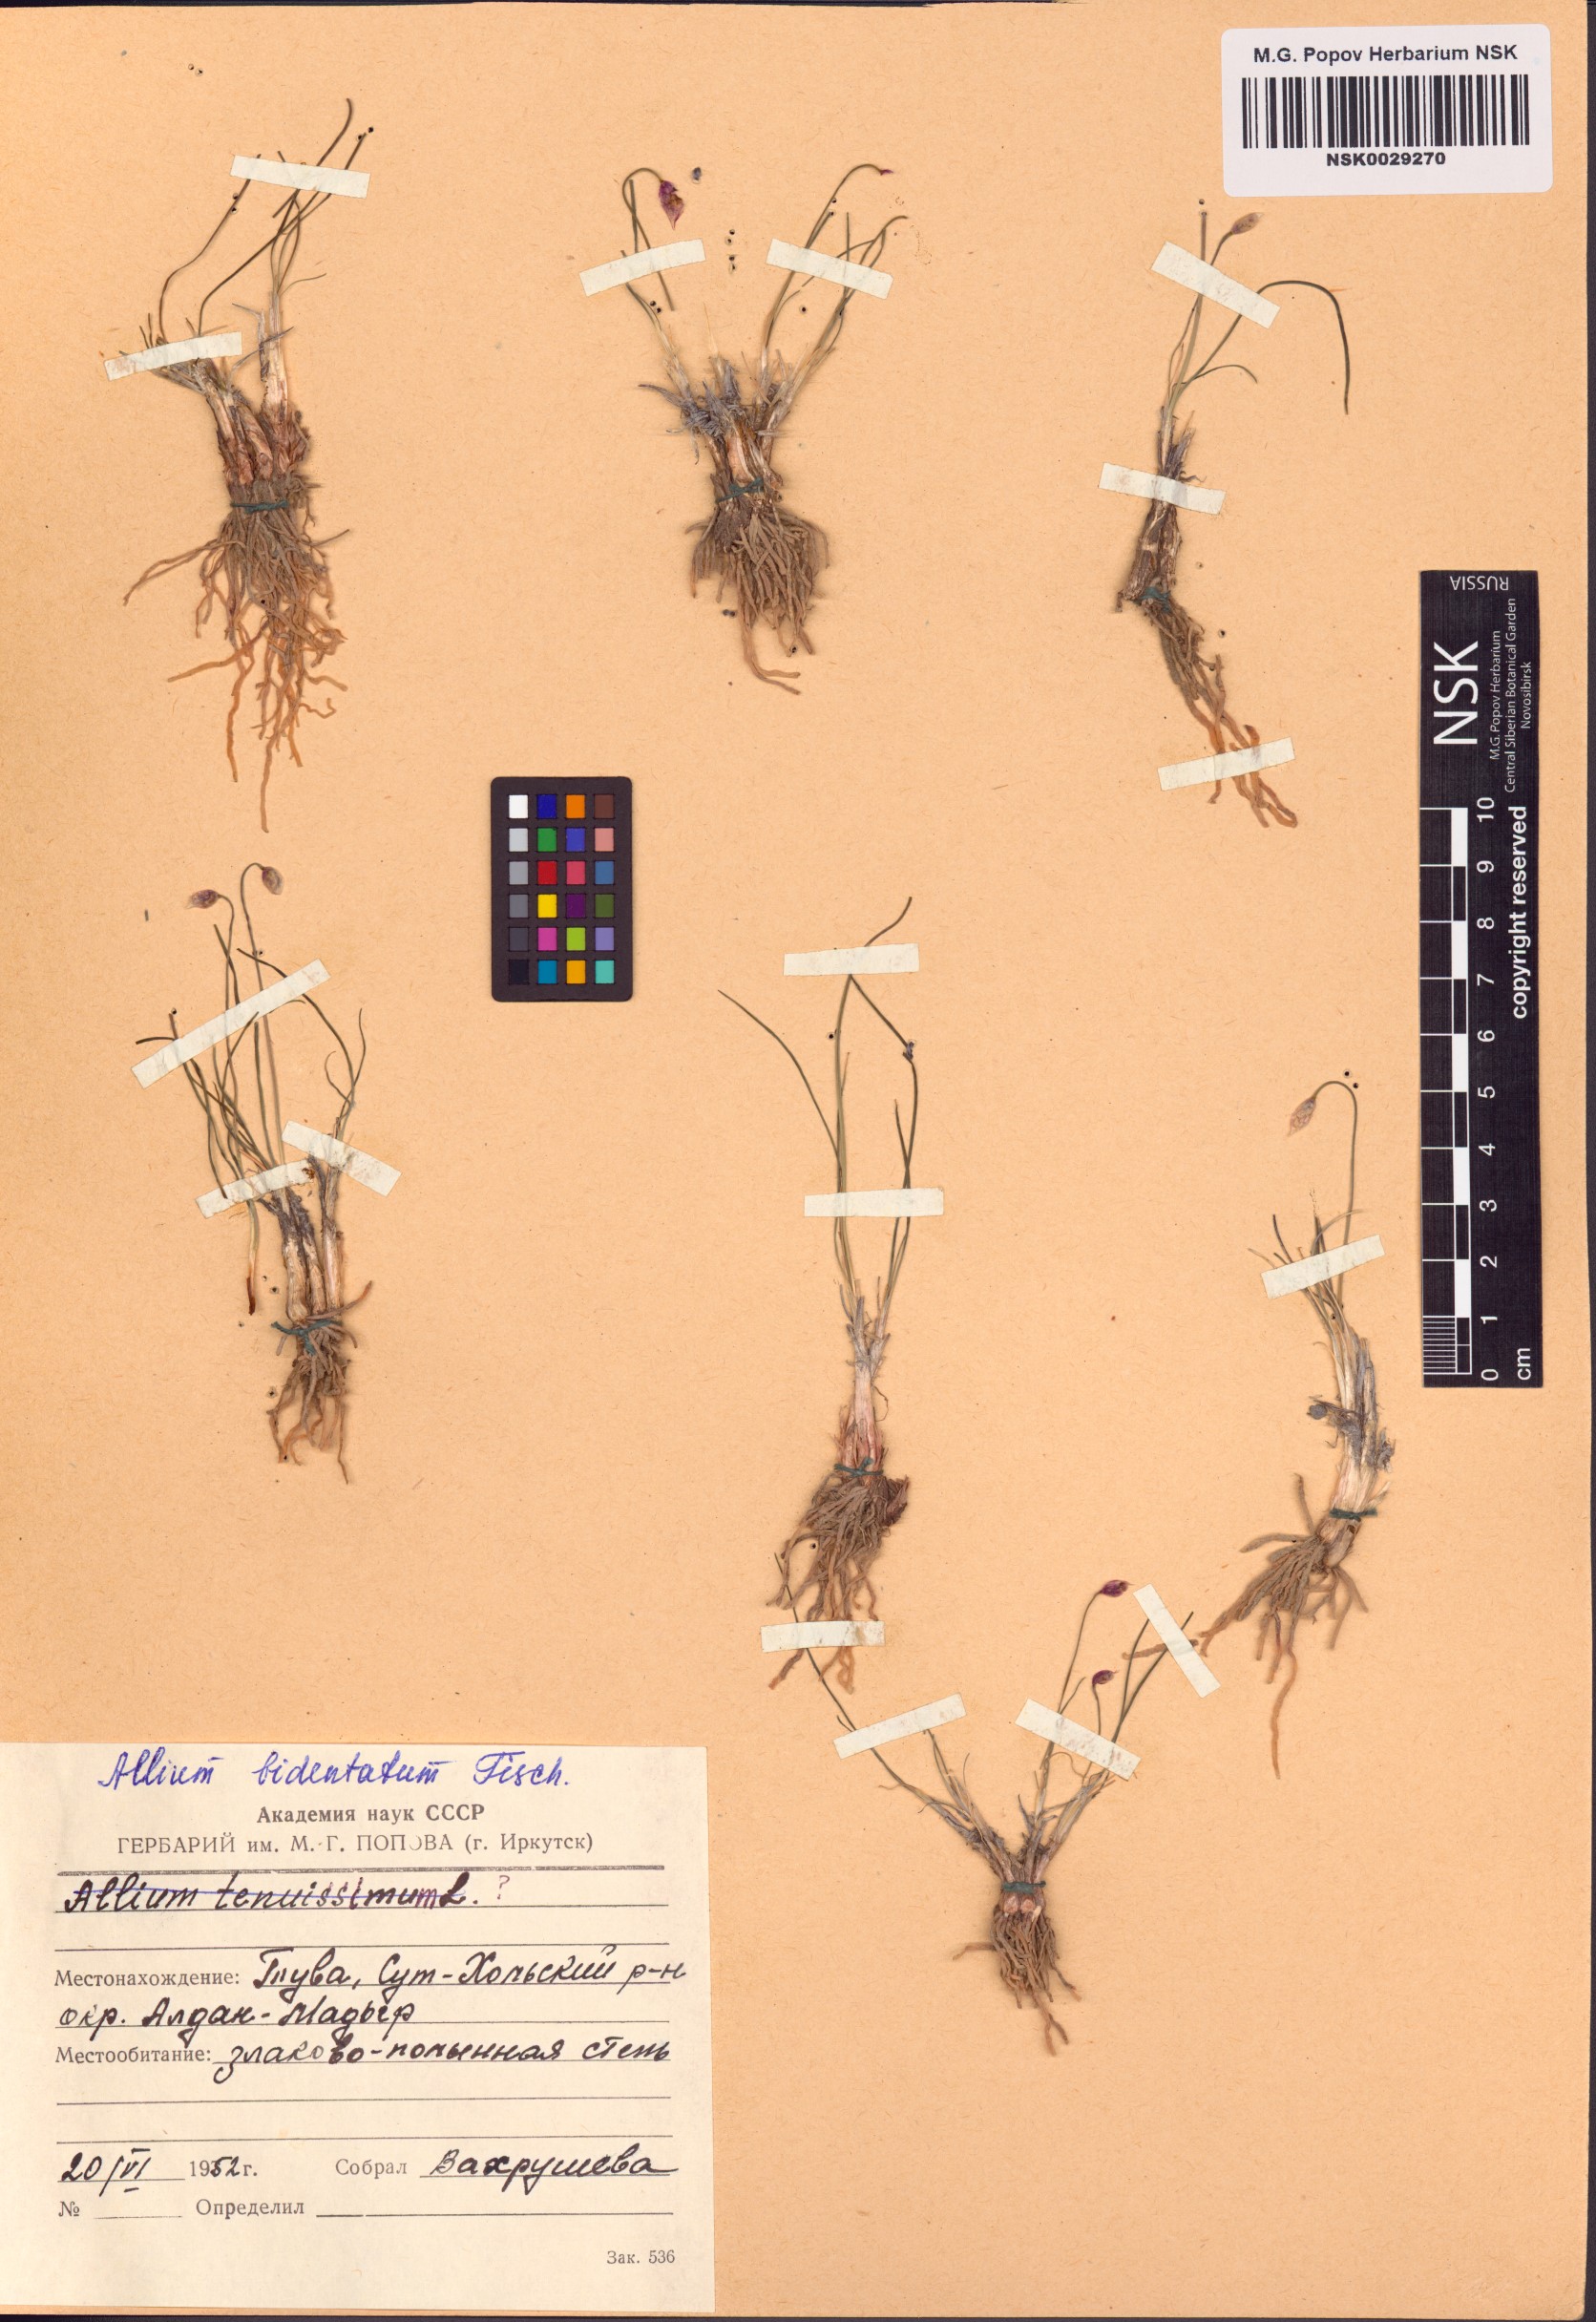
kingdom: Plantae
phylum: Tracheophyta
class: Liliopsida
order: Asparagales
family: Amaryllidaceae
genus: Allium
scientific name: Allium bidentatum
